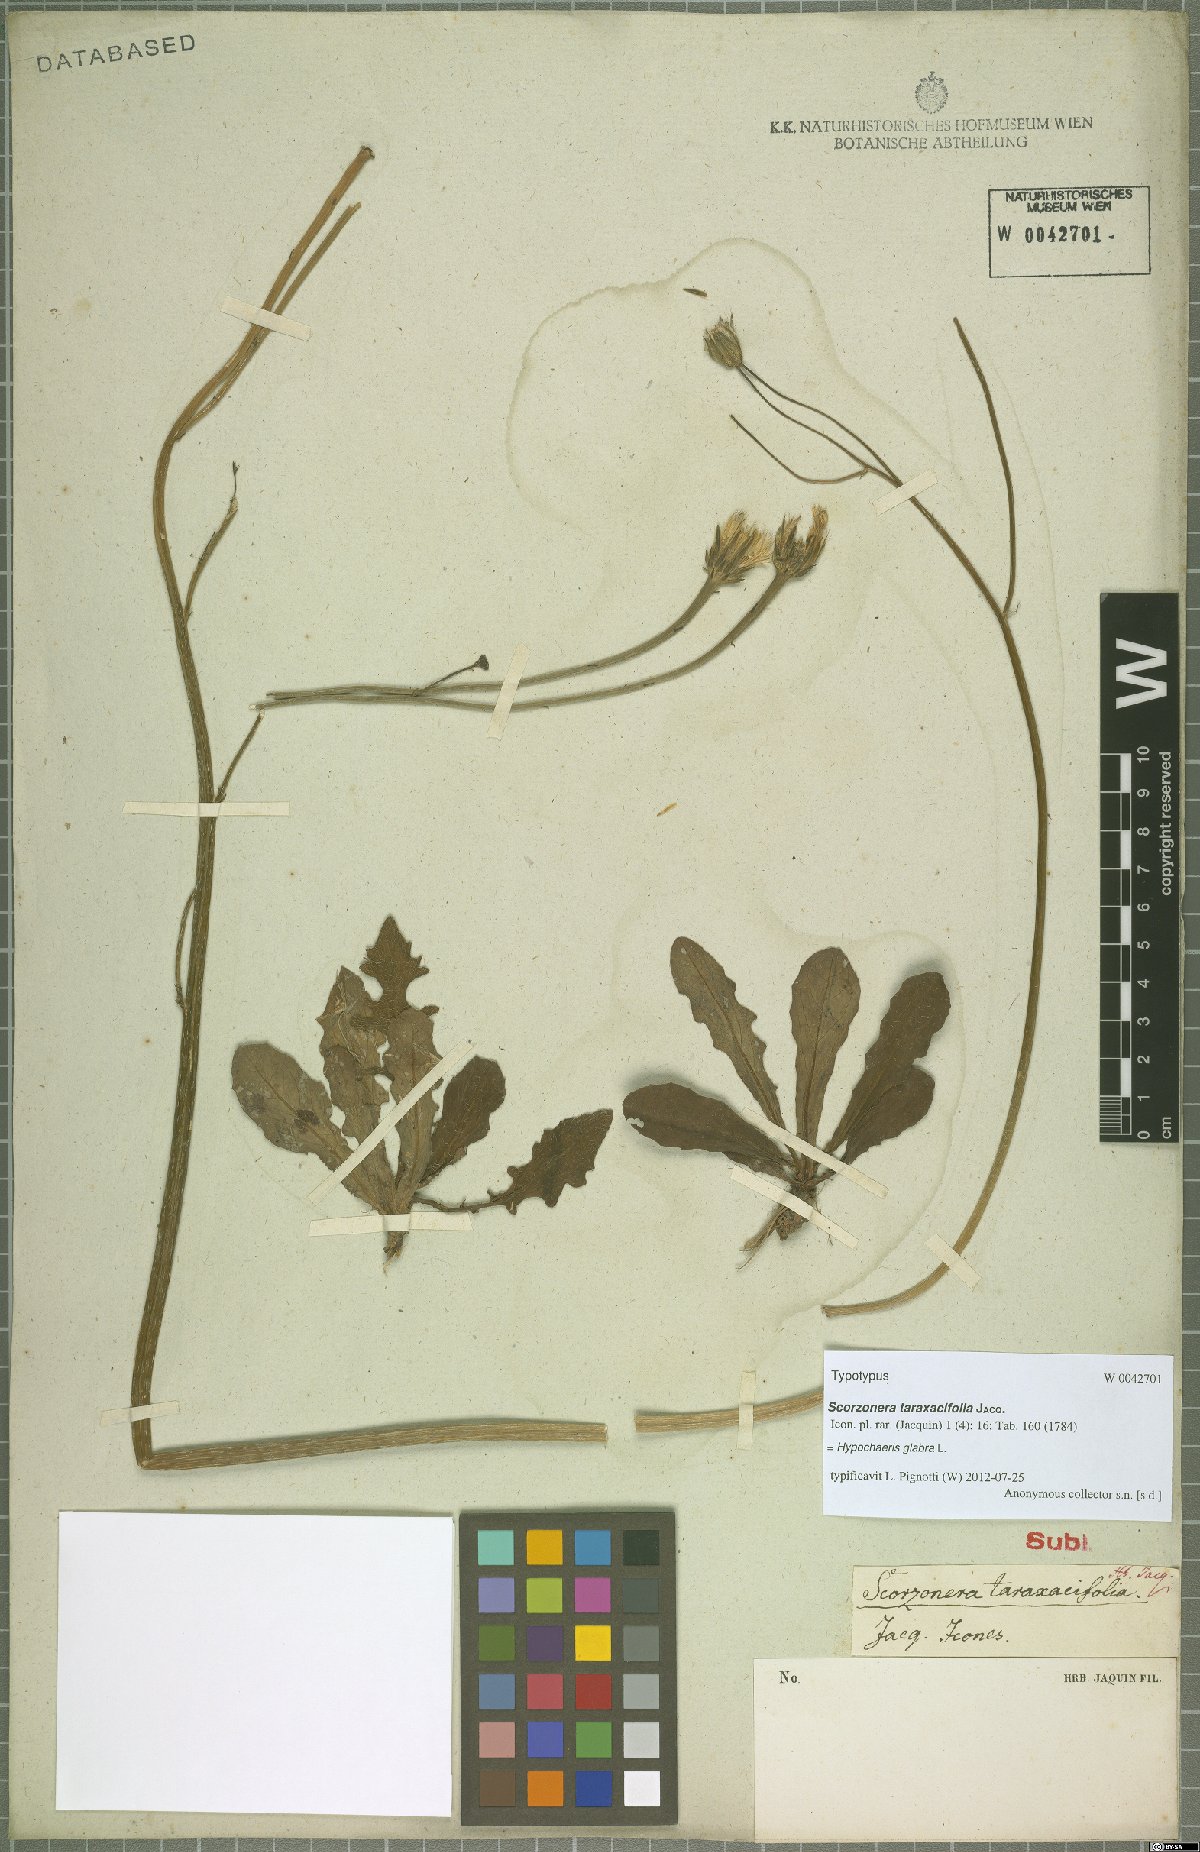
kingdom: Plantae
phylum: Tracheophyta
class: Magnoliopsida
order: Asterales
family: Asteraceae
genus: Hypochaeris
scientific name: Hypochaeris glabra
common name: Smooth catsear
